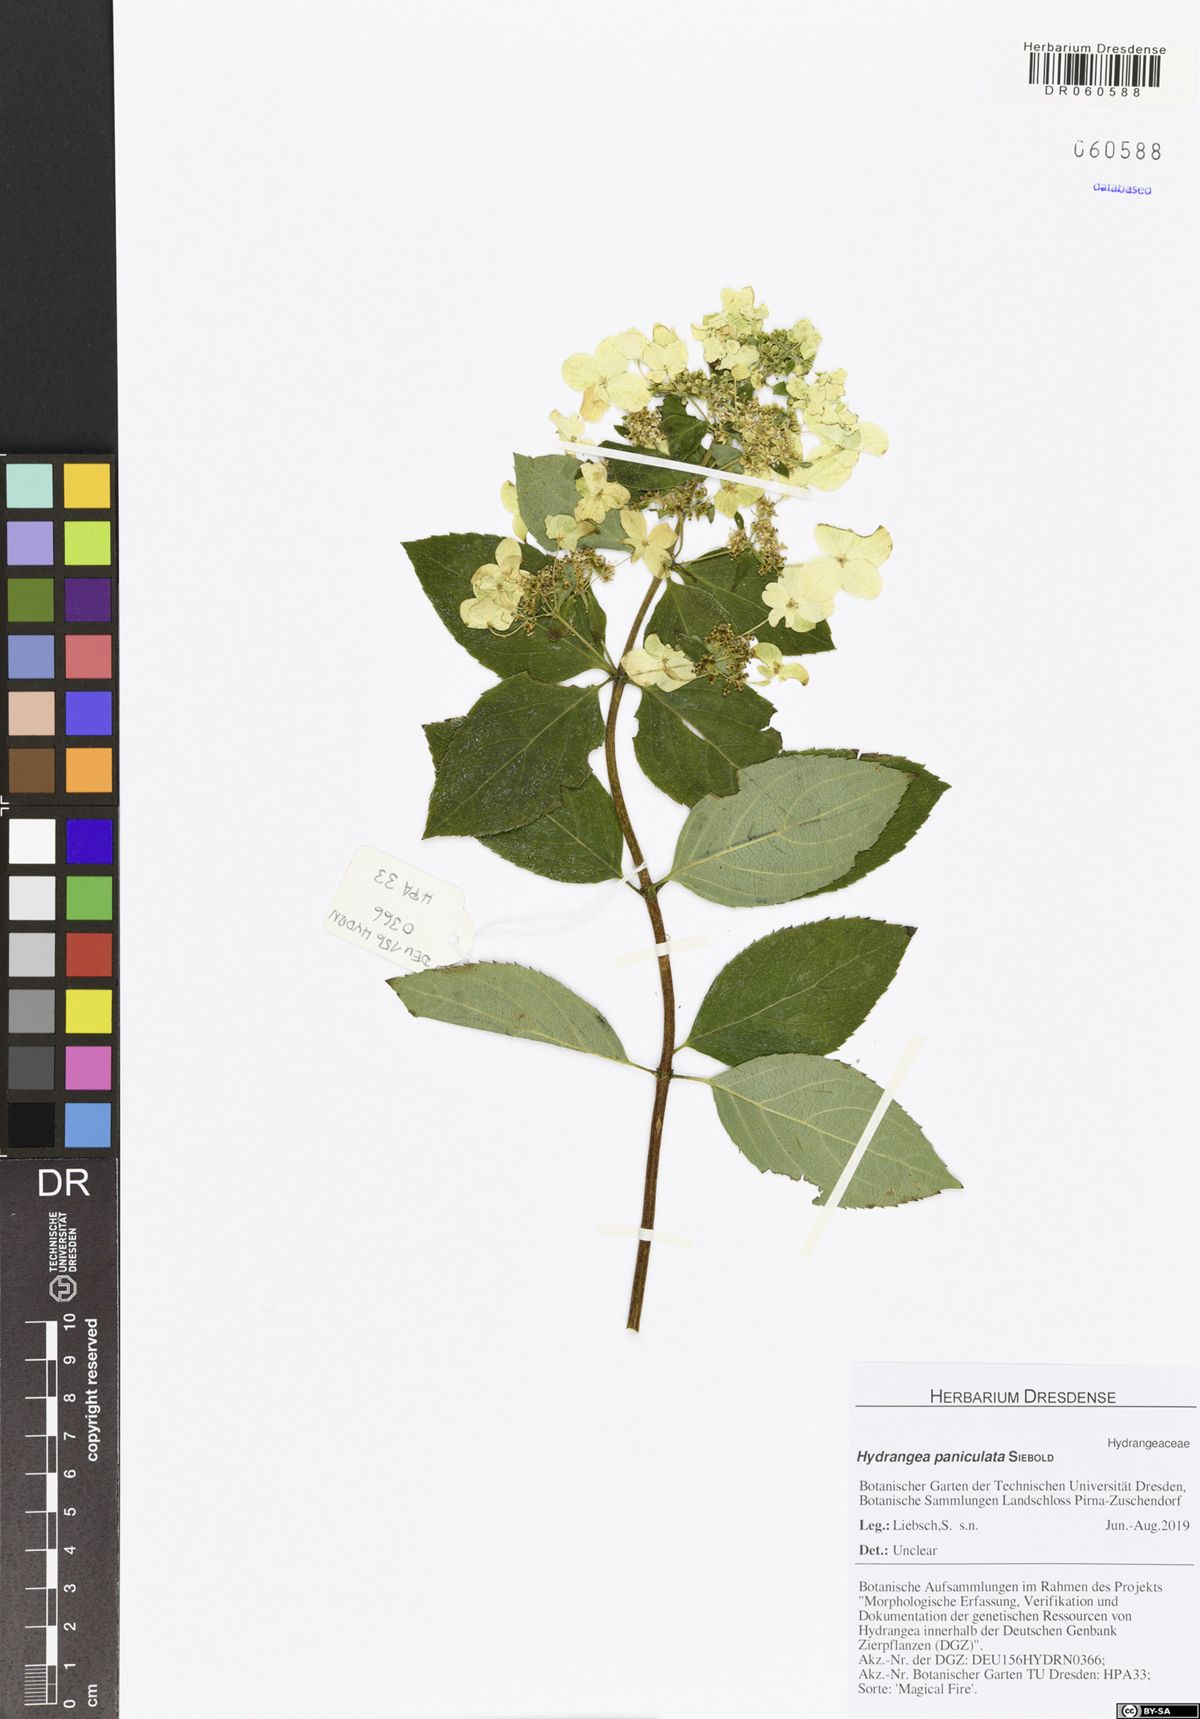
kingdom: Plantae
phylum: Tracheophyta
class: Magnoliopsida
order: Cornales
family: Hydrangeaceae
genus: Hydrangea
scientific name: Hydrangea paniculata
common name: Panicled hydrangea
